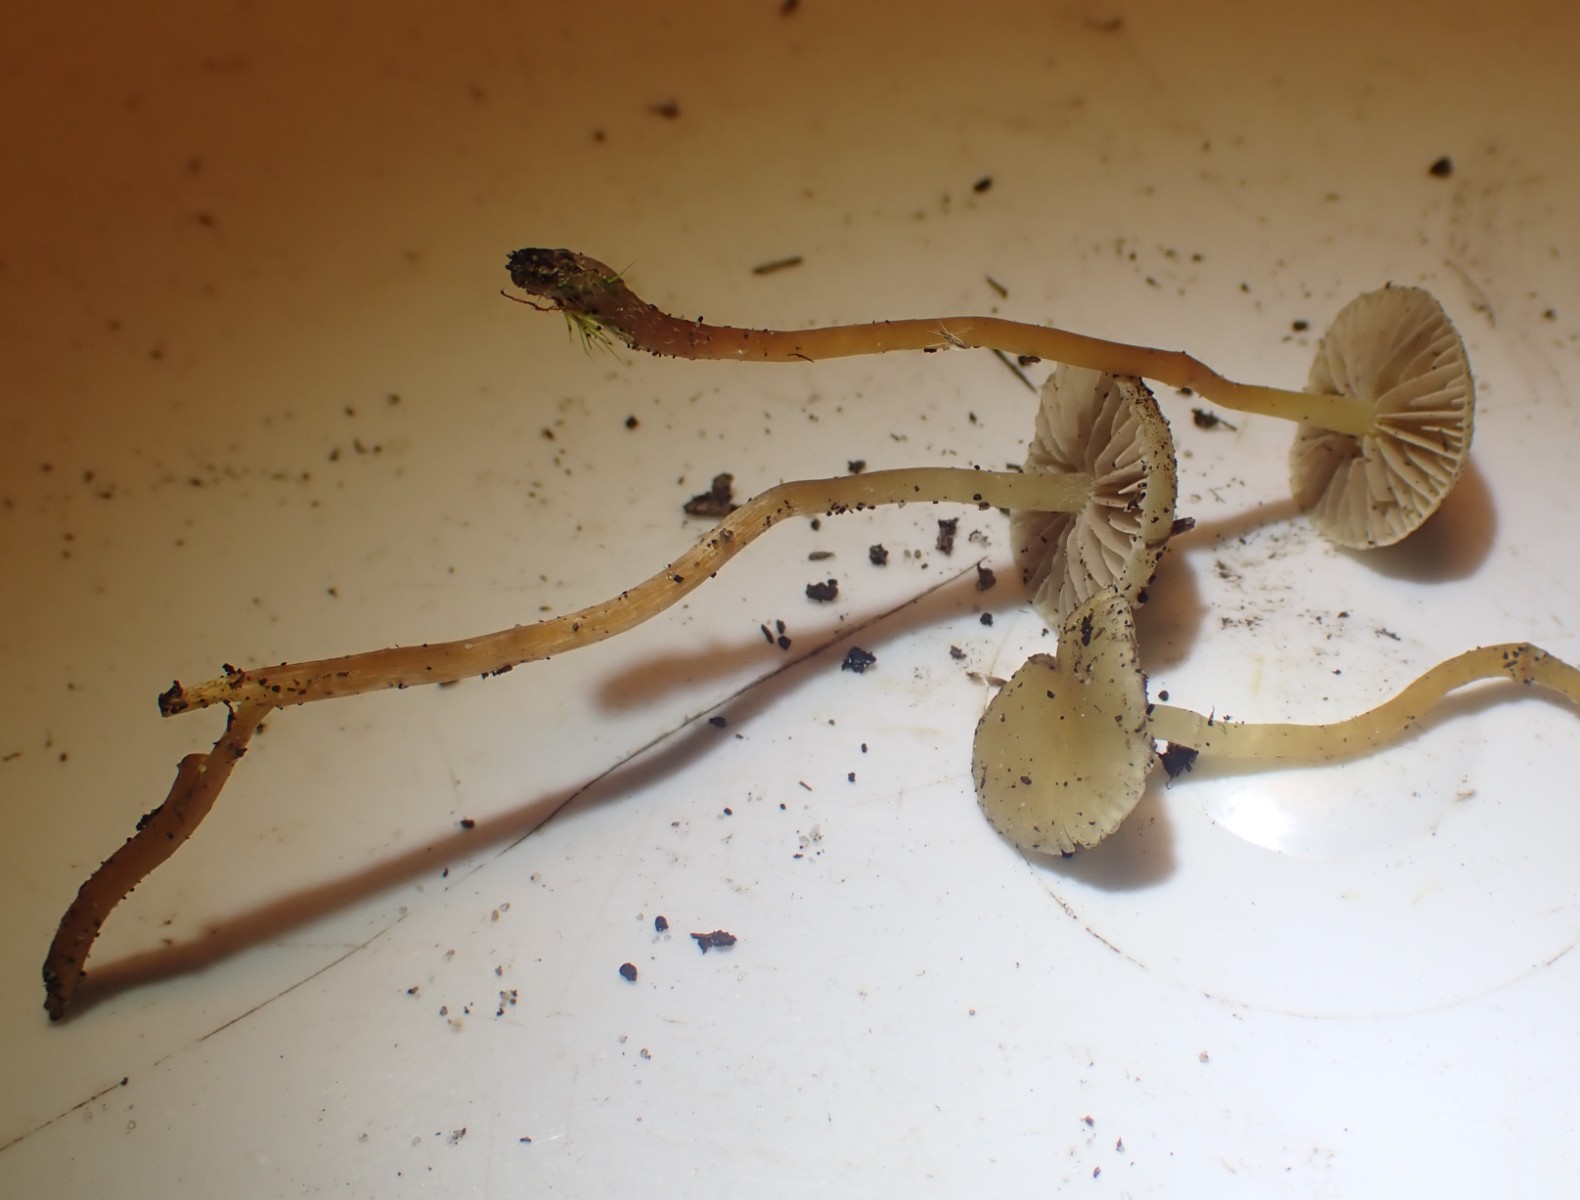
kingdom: Fungi
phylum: Basidiomycota
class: Agaricomycetes
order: Agaricales
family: Strophariaceae
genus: Hypholoma
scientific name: Hypholoma elongatum
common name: slank svovlhat
